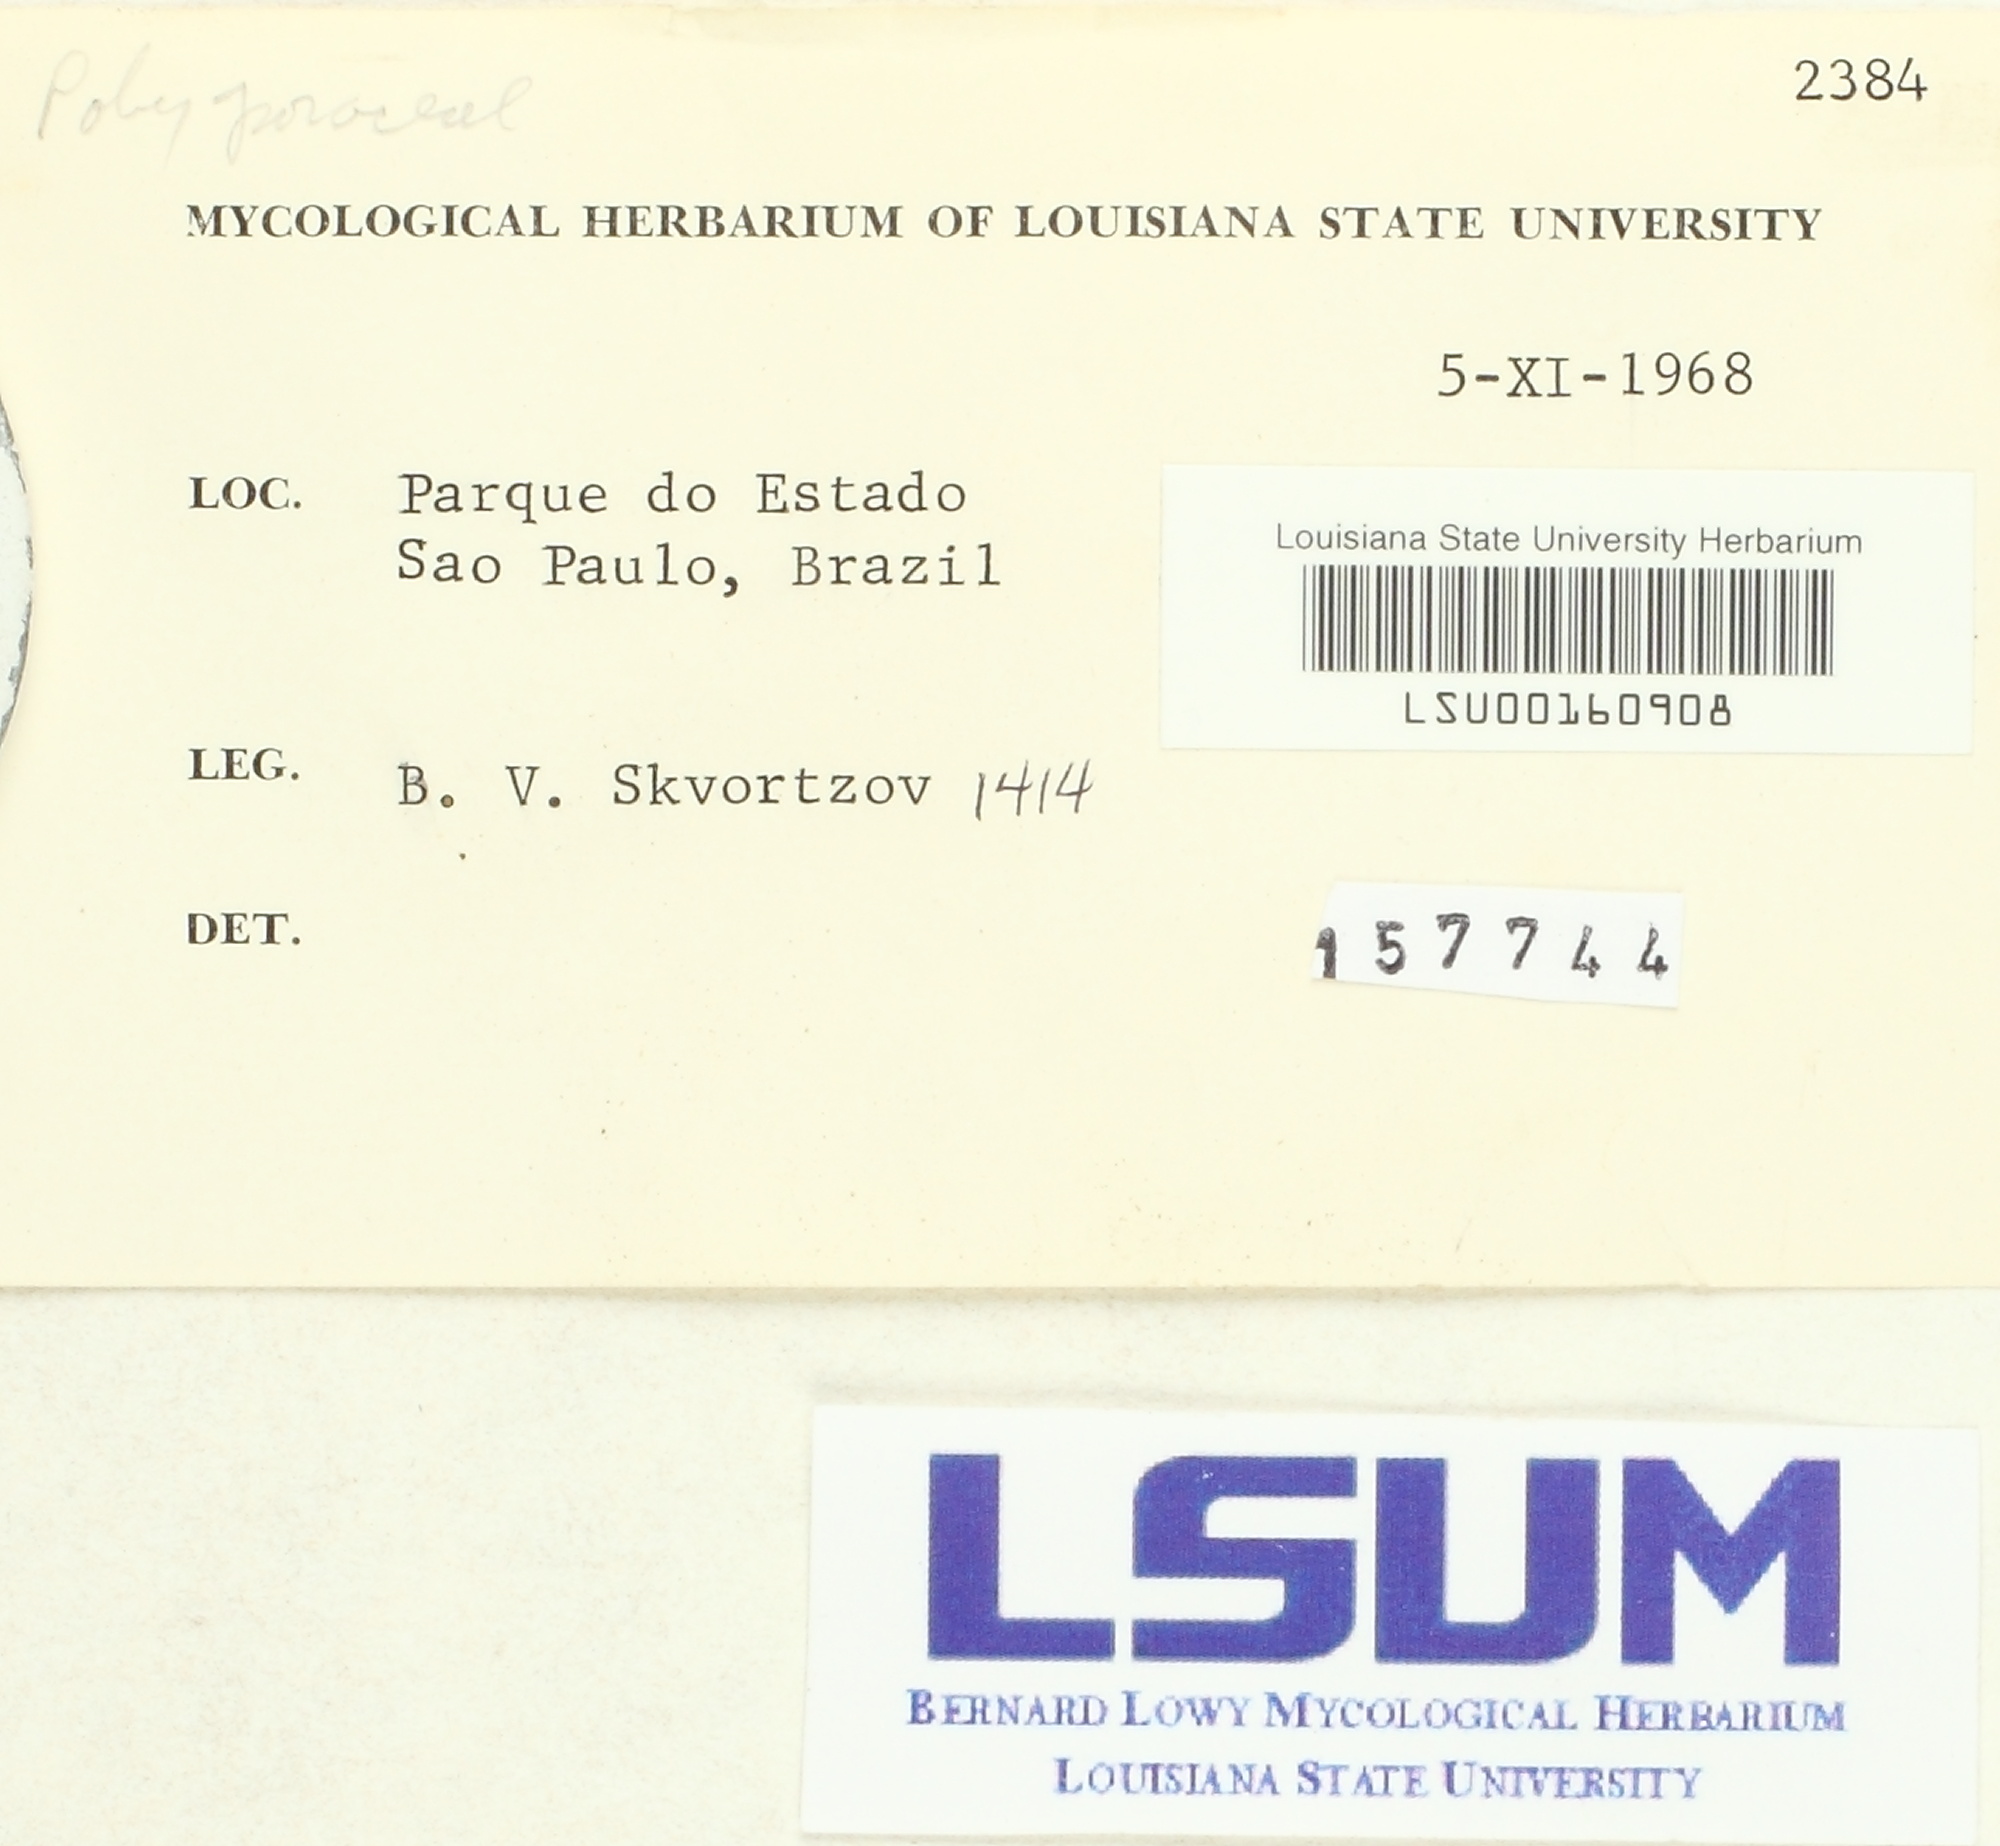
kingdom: Fungi
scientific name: Fungi
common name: Fungi
